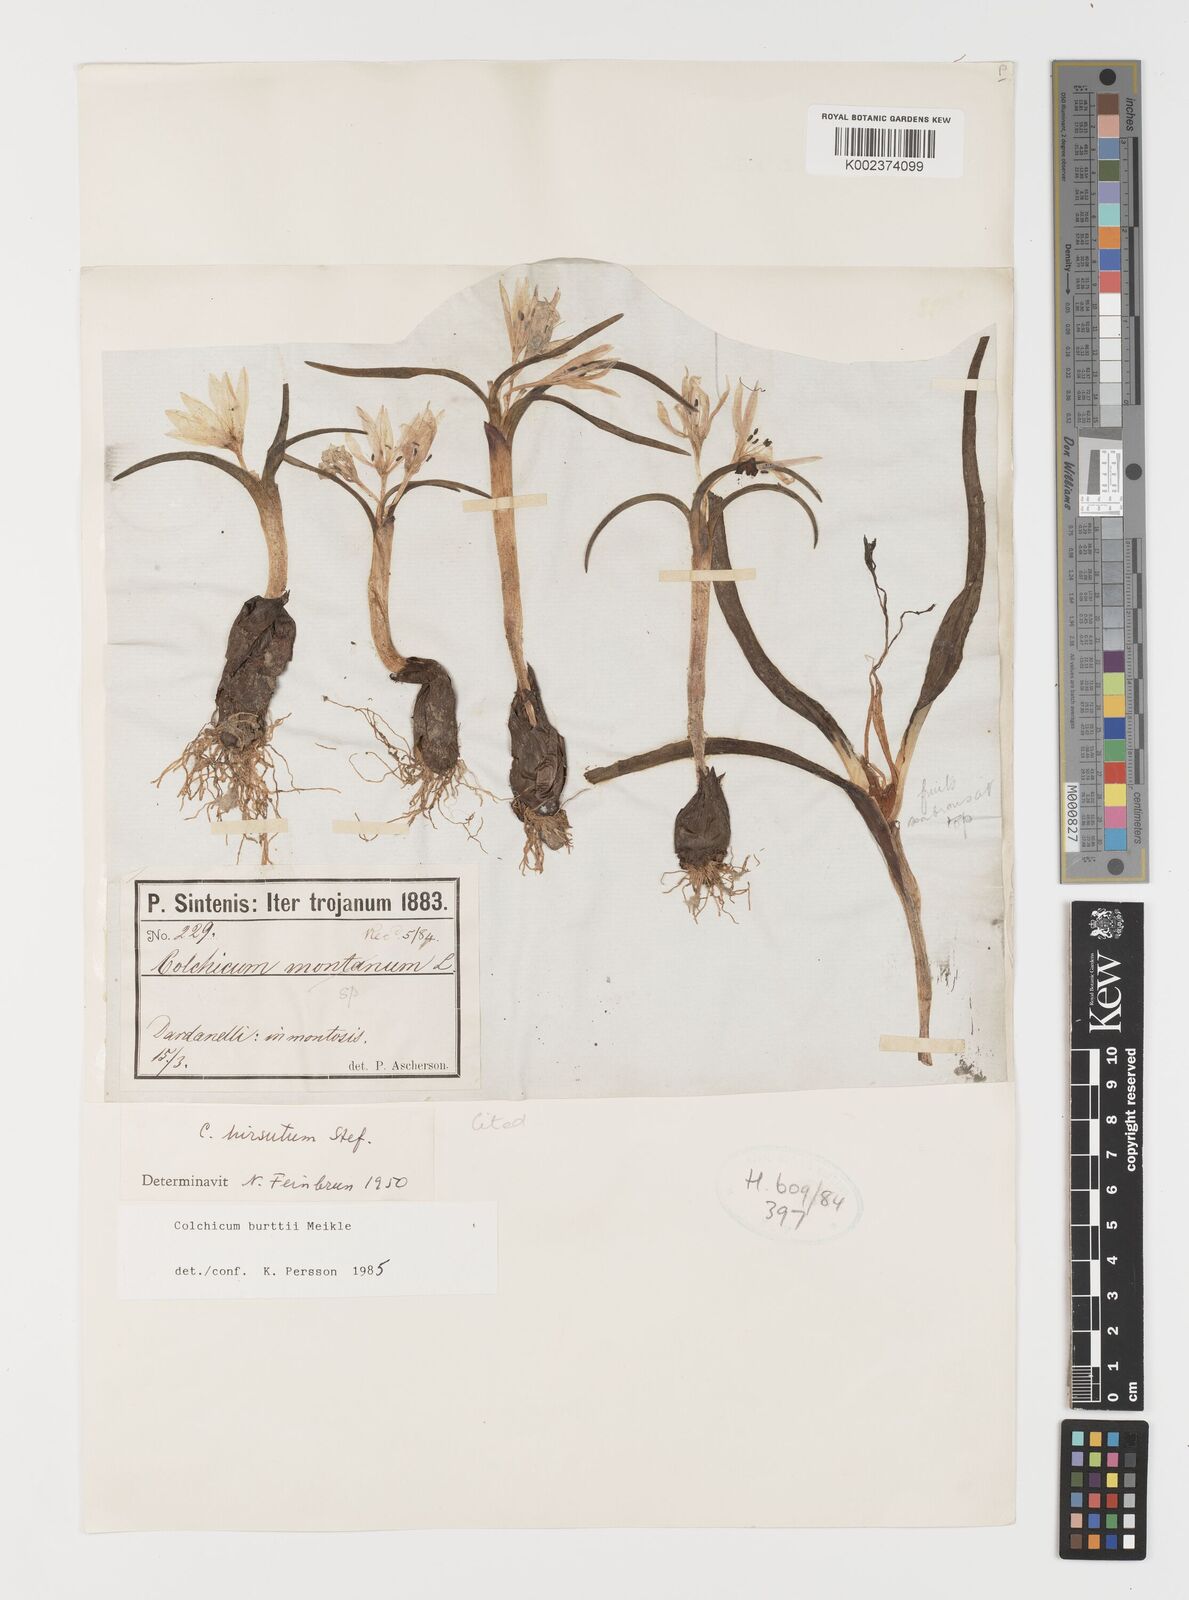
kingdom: Plantae
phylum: Tracheophyta
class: Liliopsida
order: Liliales
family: Colchicaceae
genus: Colchicum
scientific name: Colchicum burttii
